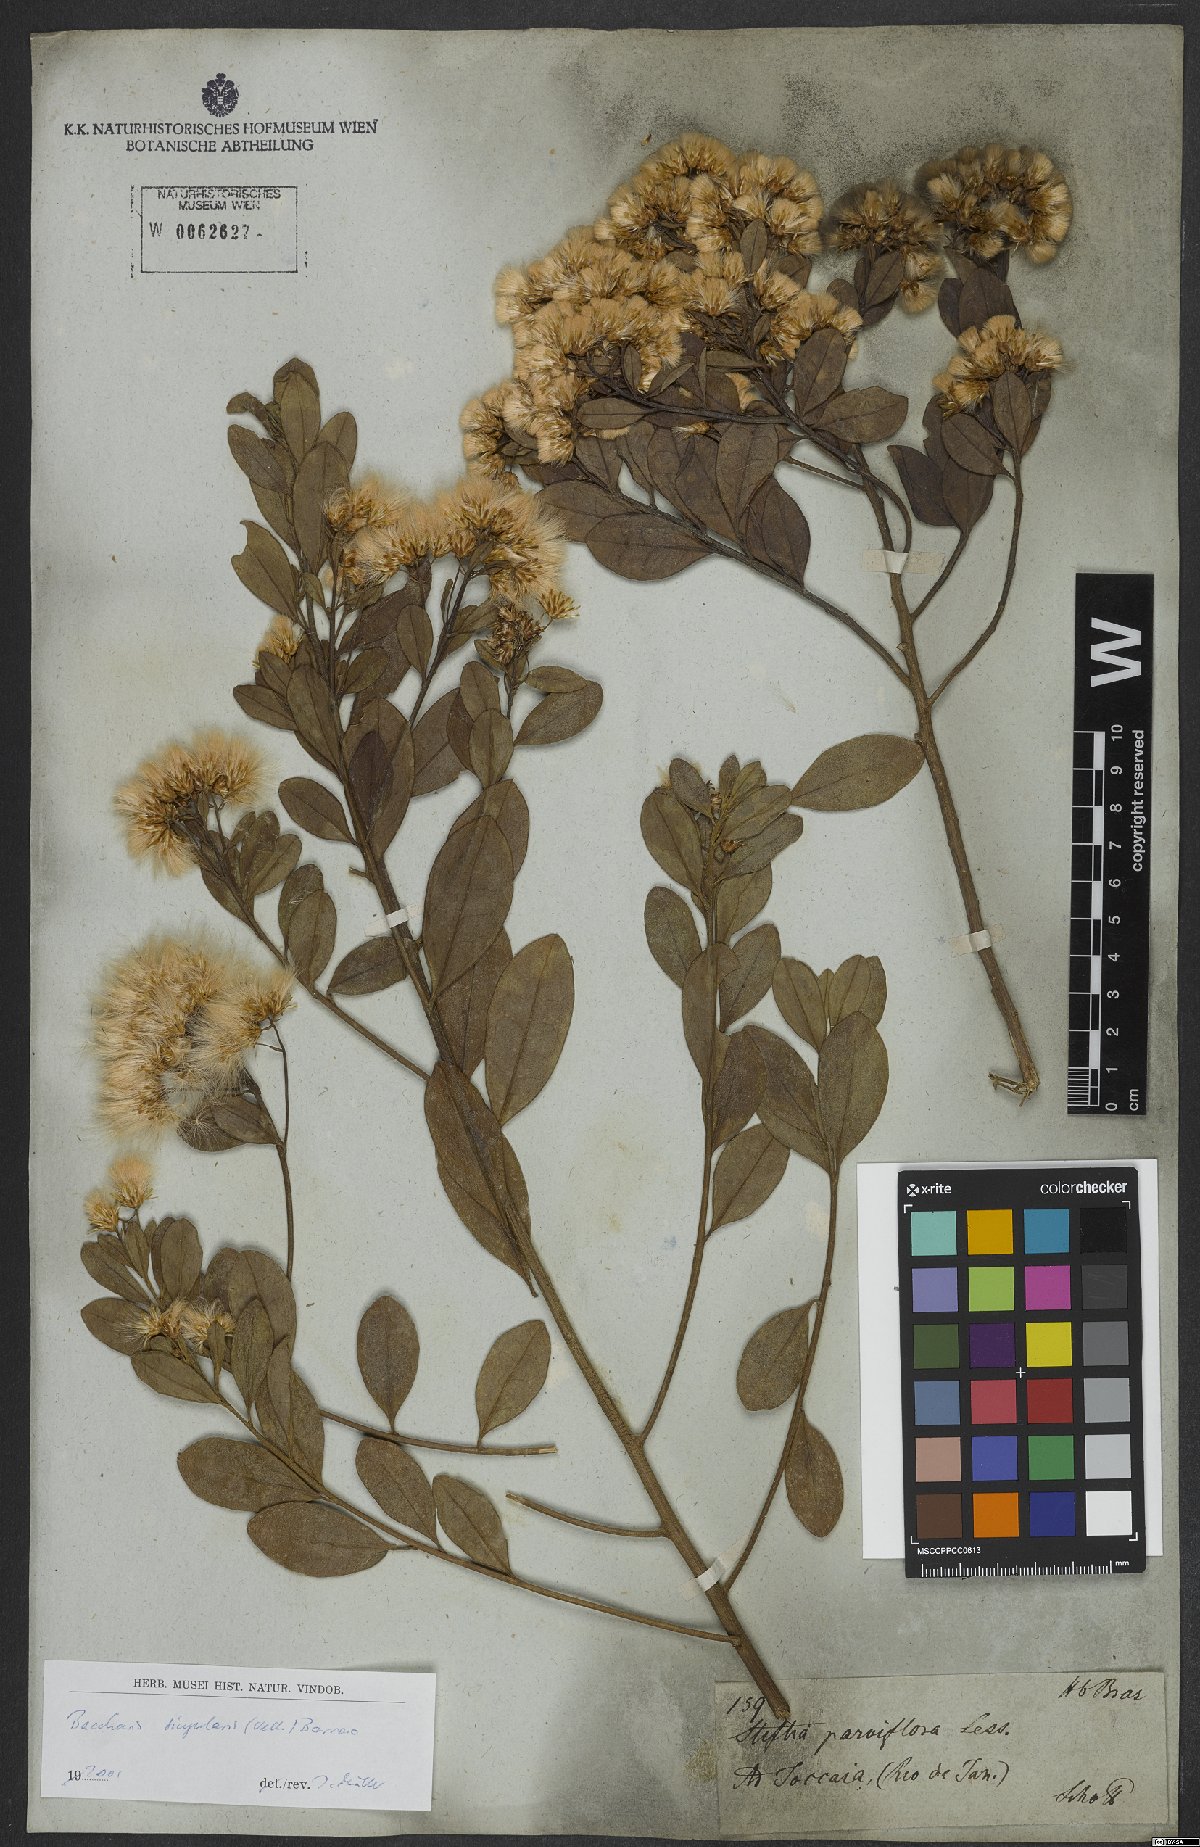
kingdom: Plantae
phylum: Tracheophyta
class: Magnoliopsida
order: Asterales
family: Asteraceae
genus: Baccharis
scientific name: Baccharis singularis
